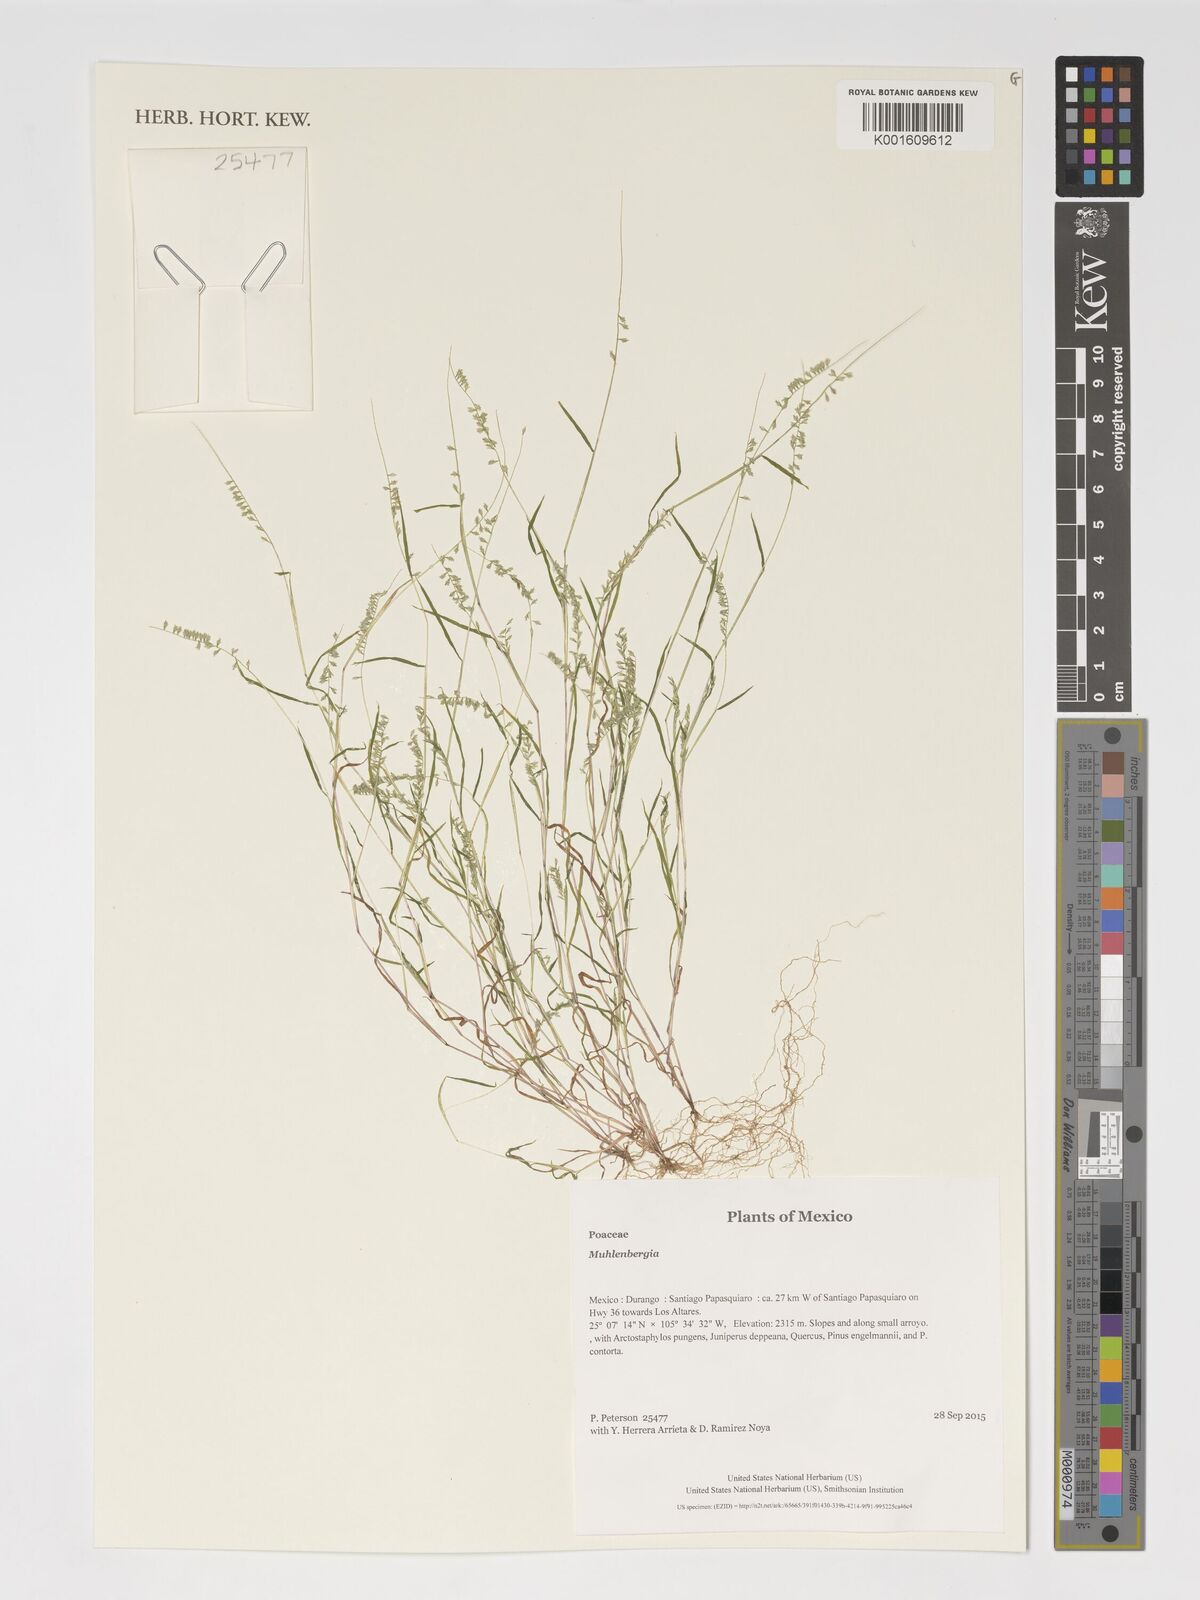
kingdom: Plantae
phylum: Tracheophyta
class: Liliopsida
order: Poales
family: Poaceae
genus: Muhlenbergia
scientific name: Muhlenbergia
